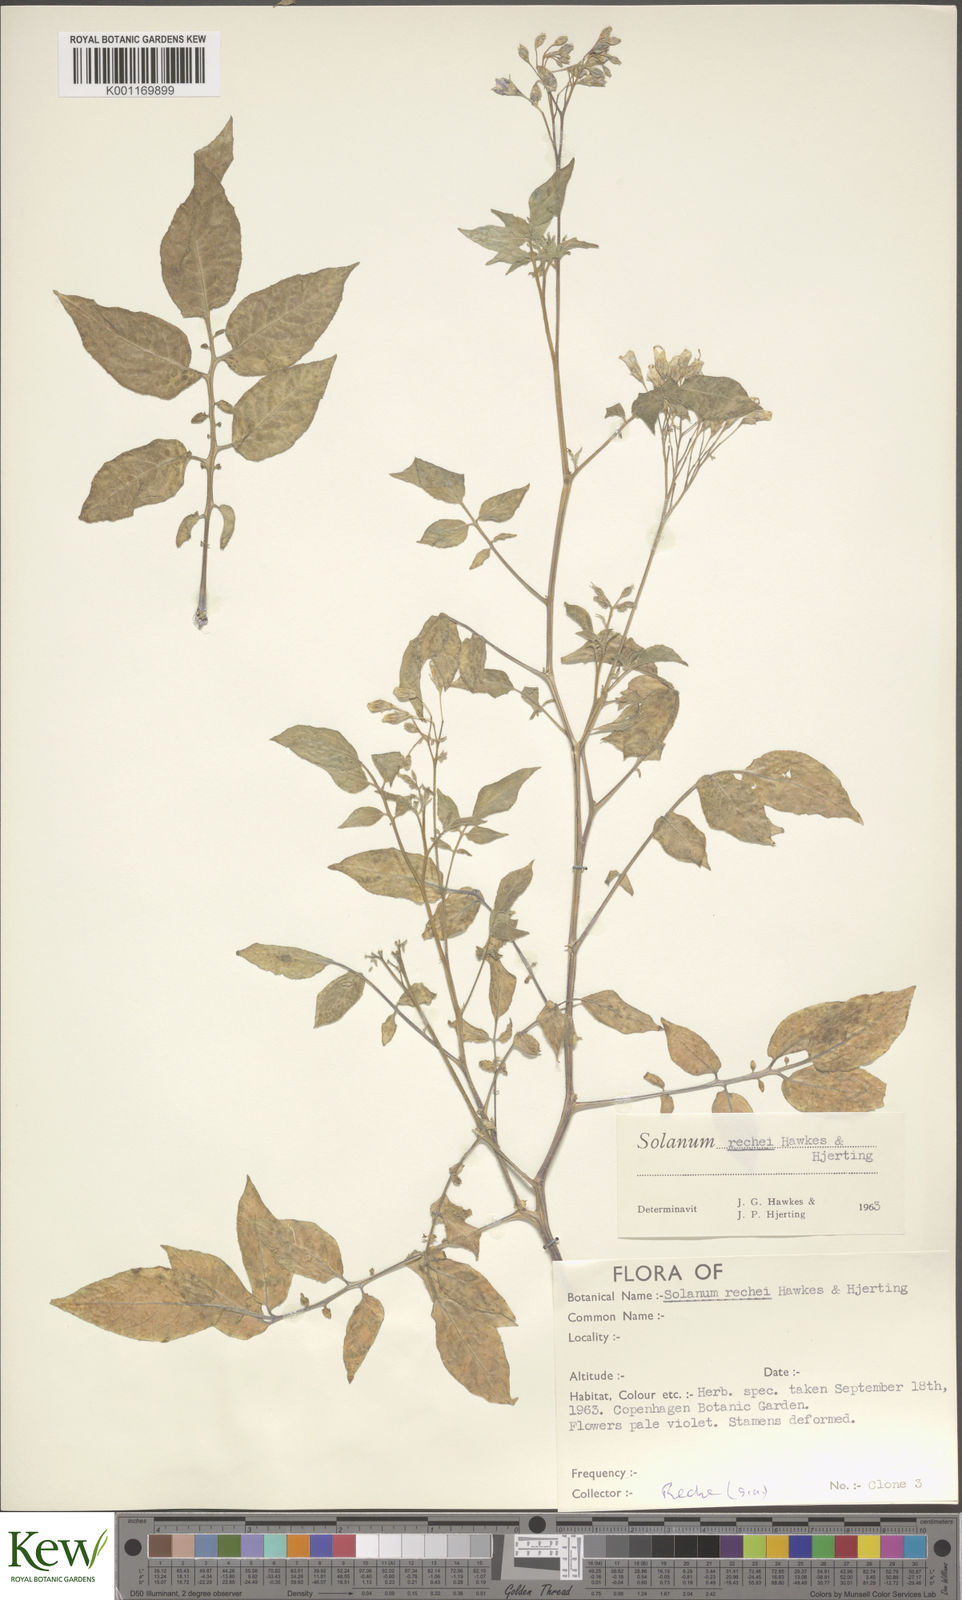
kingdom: Plantae
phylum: Tracheophyta
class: Magnoliopsida
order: Solanales
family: Solanaceae
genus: Solanum
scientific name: Solanum rechei
